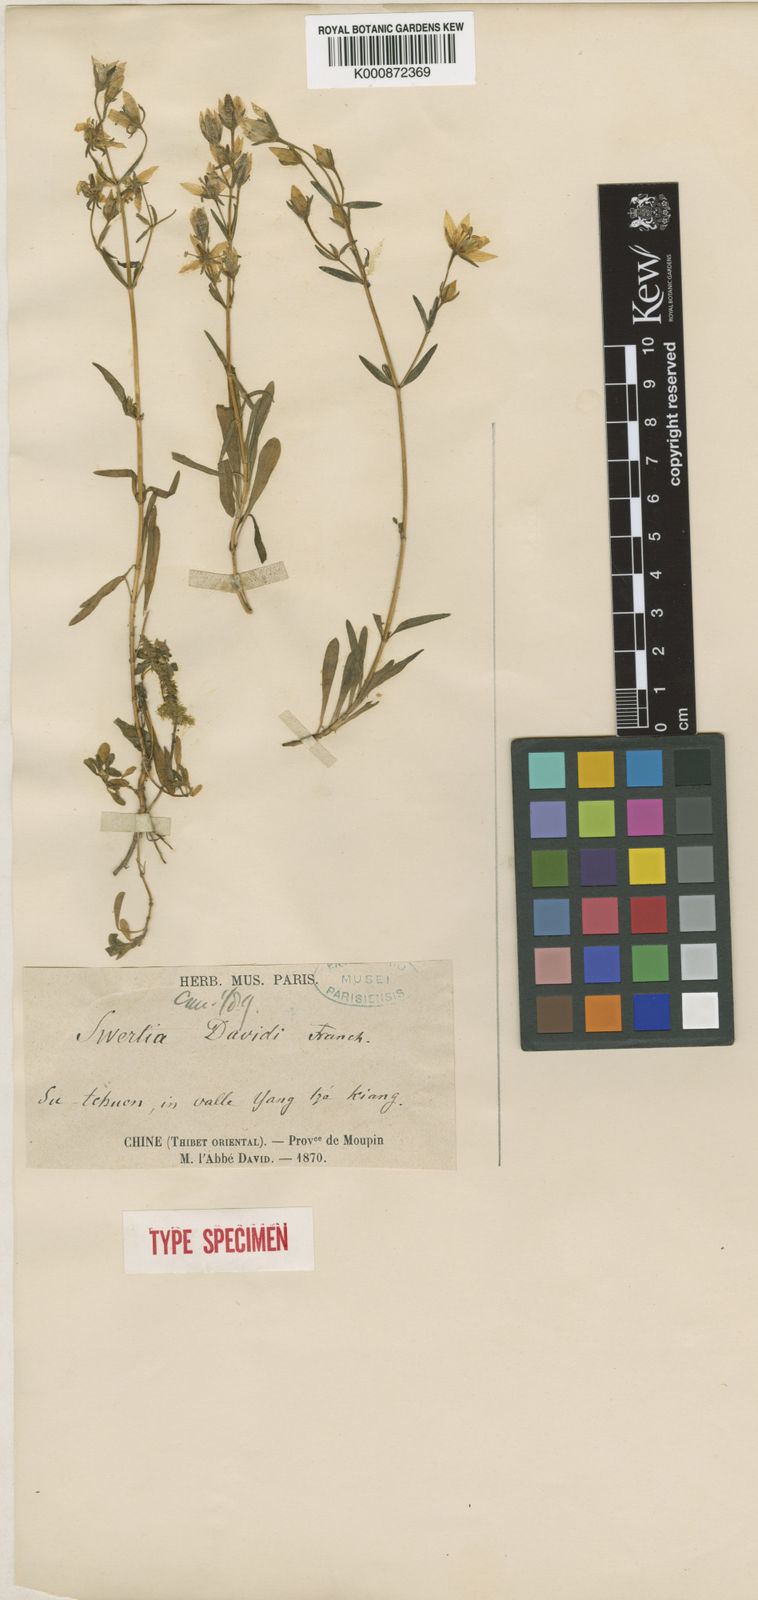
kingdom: Plantae
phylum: Tracheophyta
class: Magnoliopsida
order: Gentianales
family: Gentianaceae
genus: Swertia
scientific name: Swertia davidii
